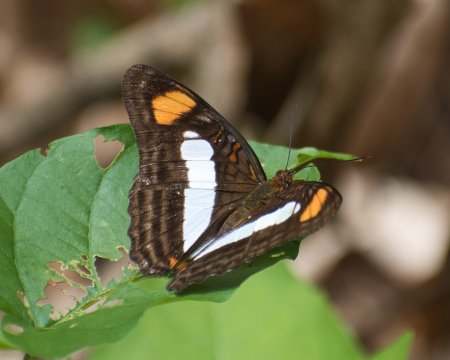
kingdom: Animalia
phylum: Arthropoda
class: Insecta
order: Lepidoptera
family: Nymphalidae
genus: Limenitis
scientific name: Limenitis paraena
